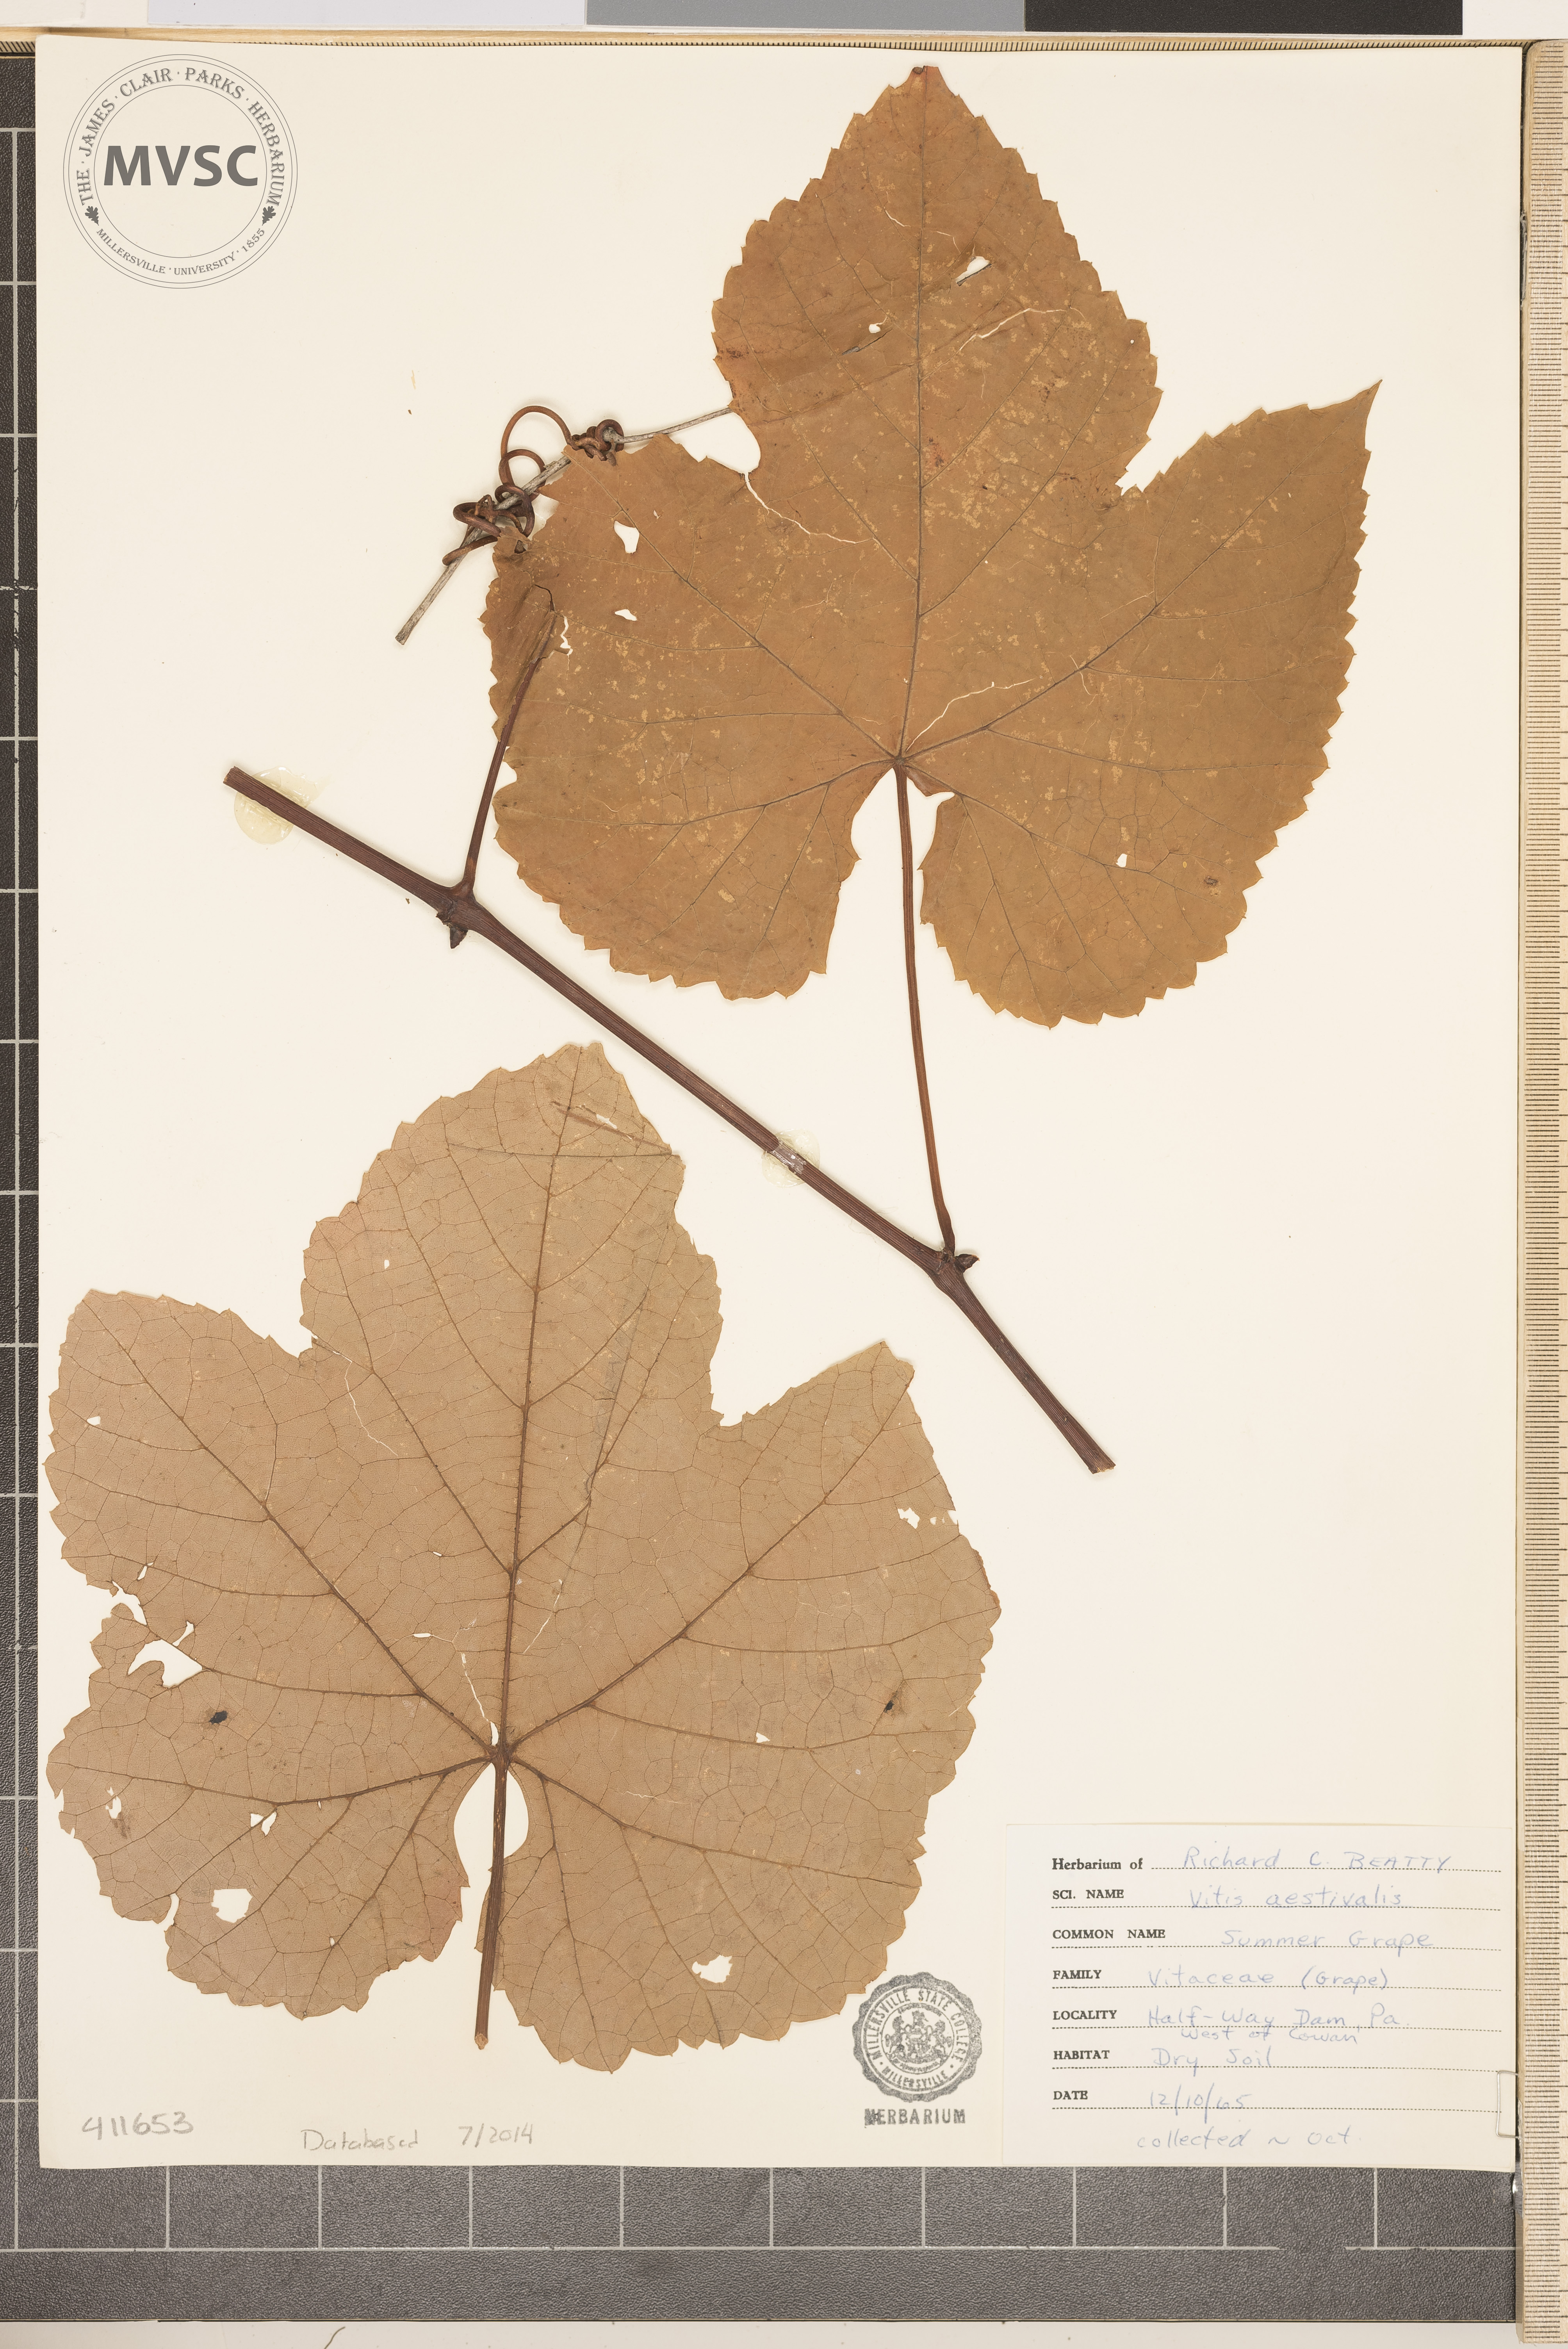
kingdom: Plantae
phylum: Tracheophyta
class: Magnoliopsida
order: Vitales
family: Vitaceae
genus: Vitis
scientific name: Vitis aestivalis
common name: Summer Grape
